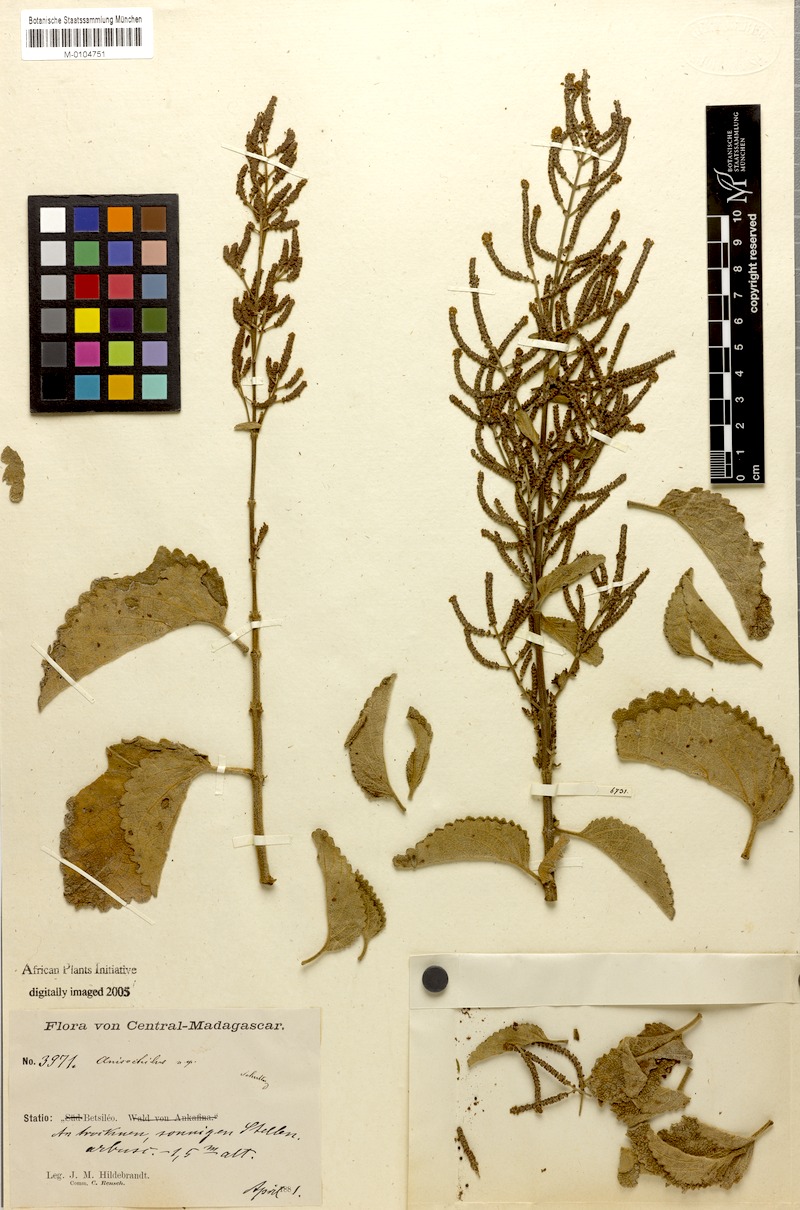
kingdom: Plantae
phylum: Tracheophyta
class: Magnoliopsida
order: Lamiales
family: Lamiaceae
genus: Tetradenia
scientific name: Tetradenia goudotii
